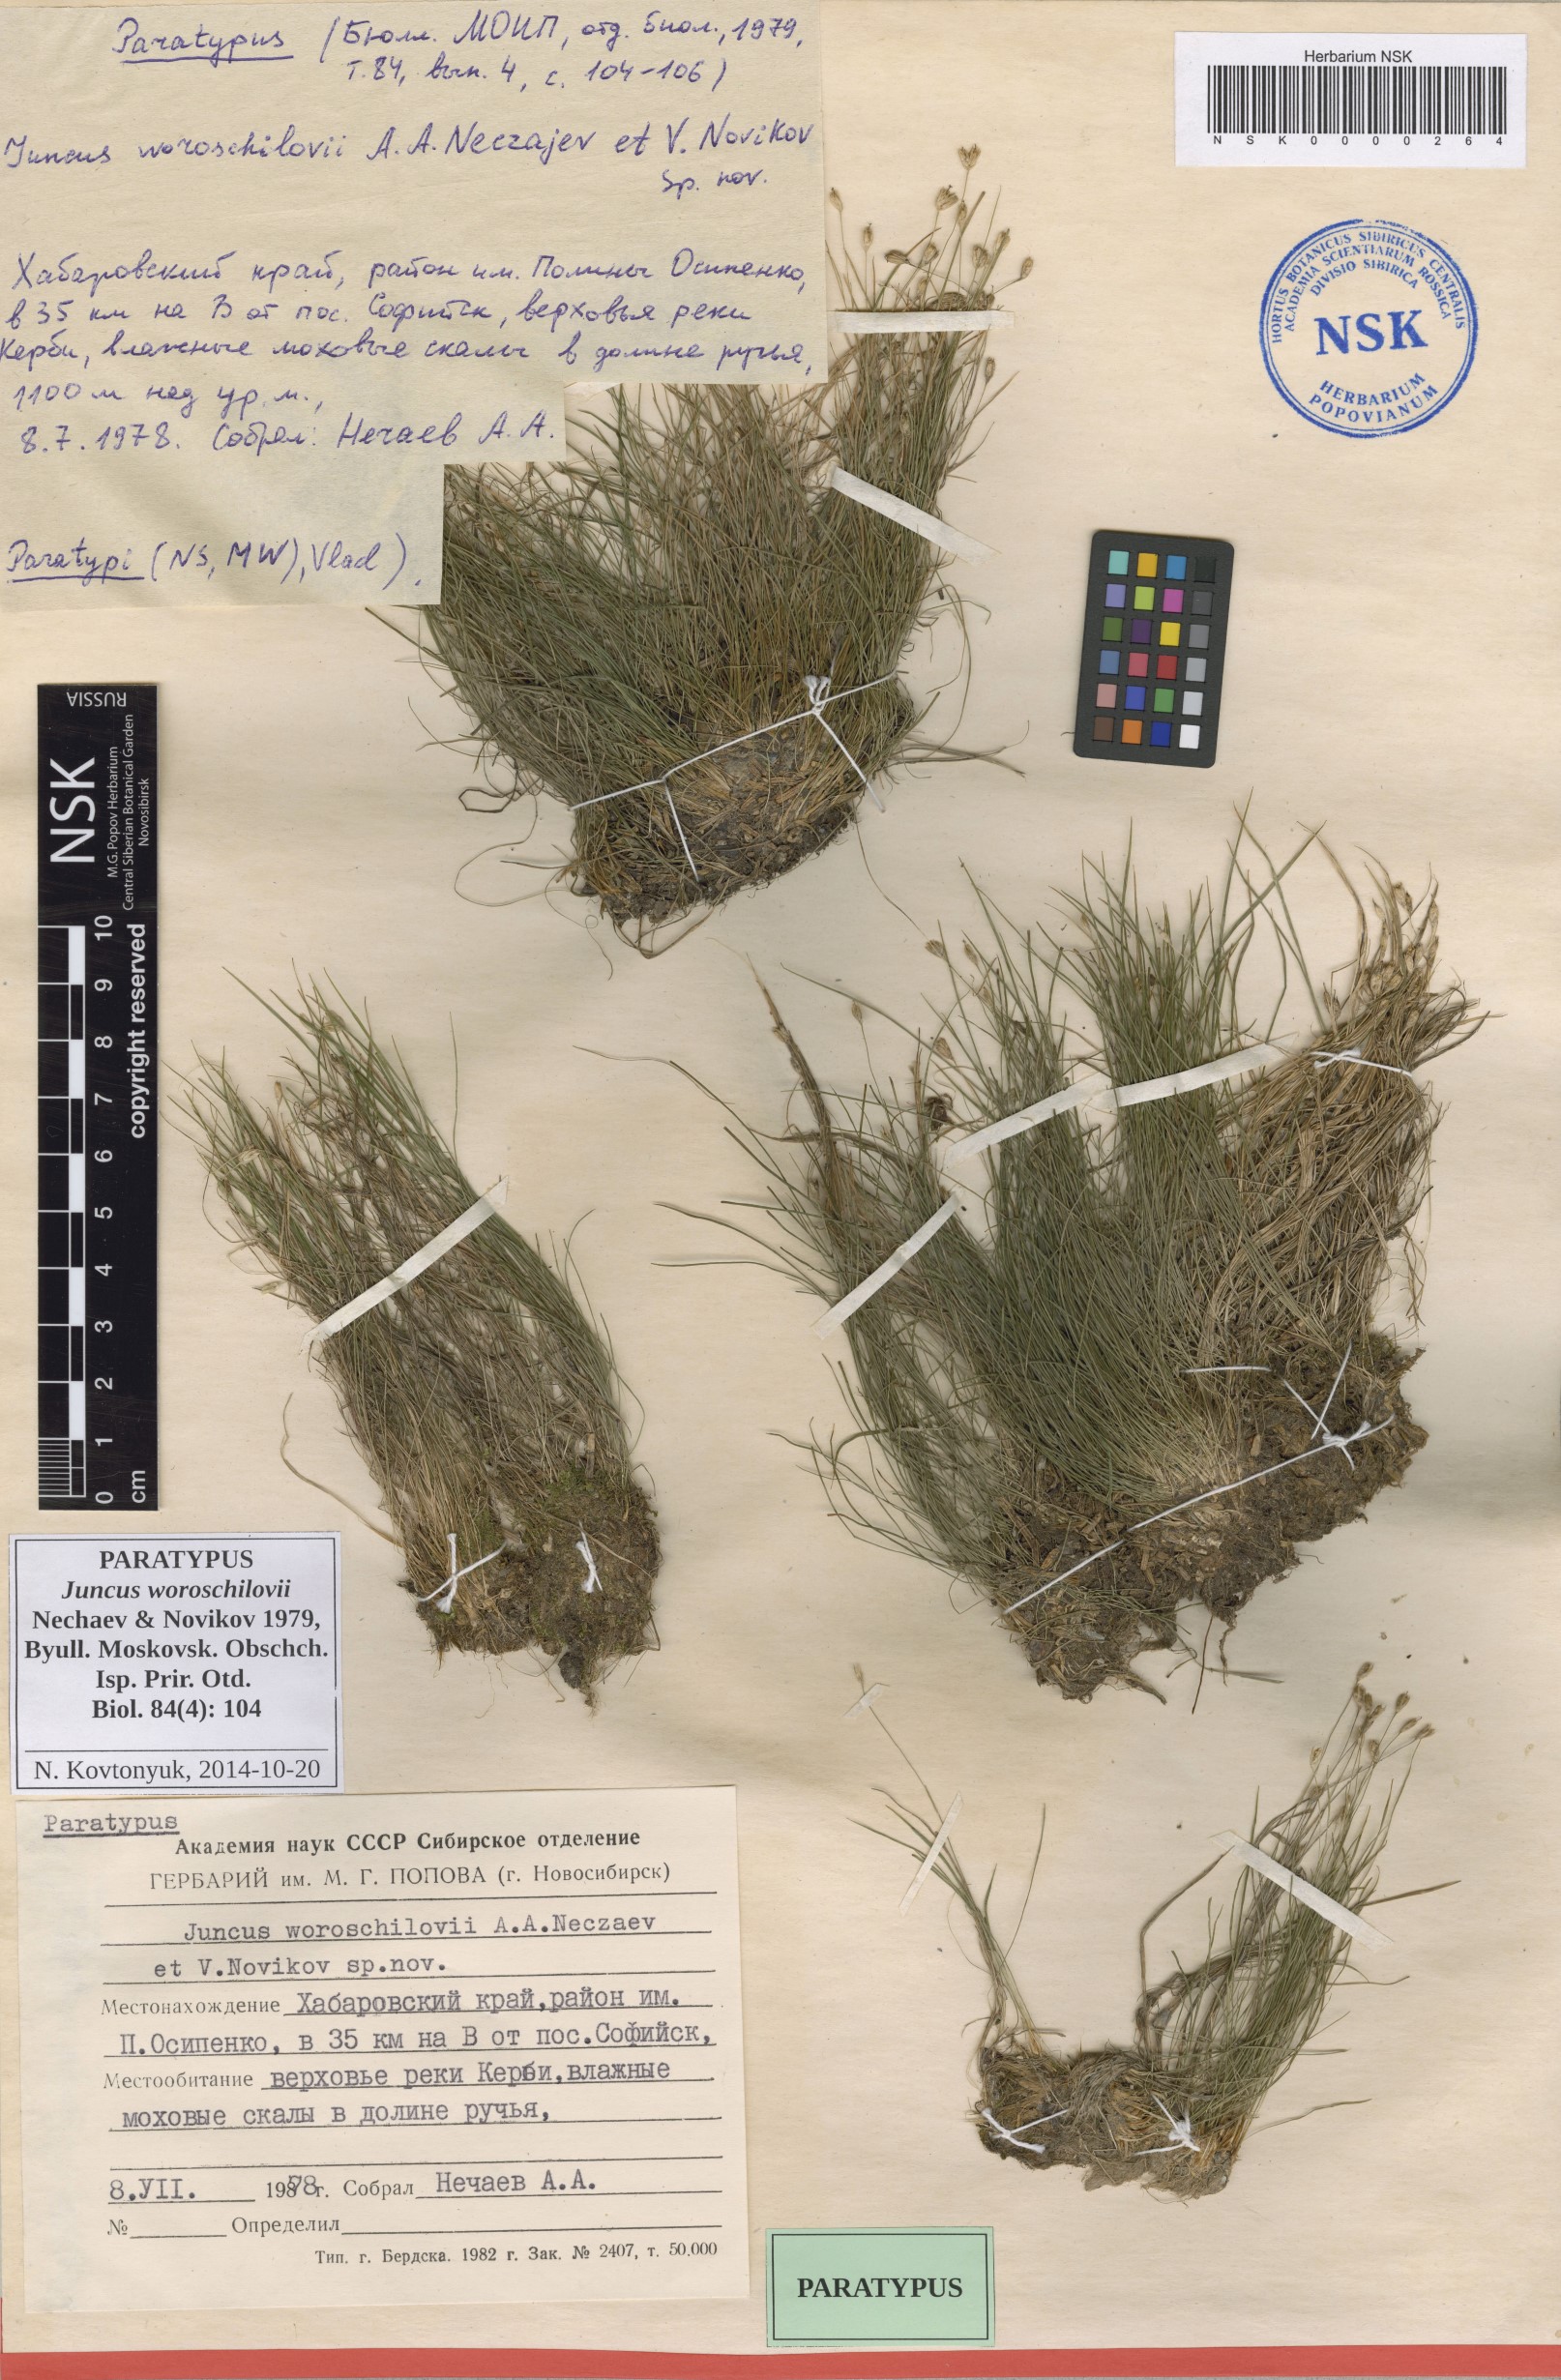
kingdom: Plantae
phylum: Tracheophyta
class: Liliopsida
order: Poales
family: Juncaceae
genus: Juncus
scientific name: Juncus potaninii
